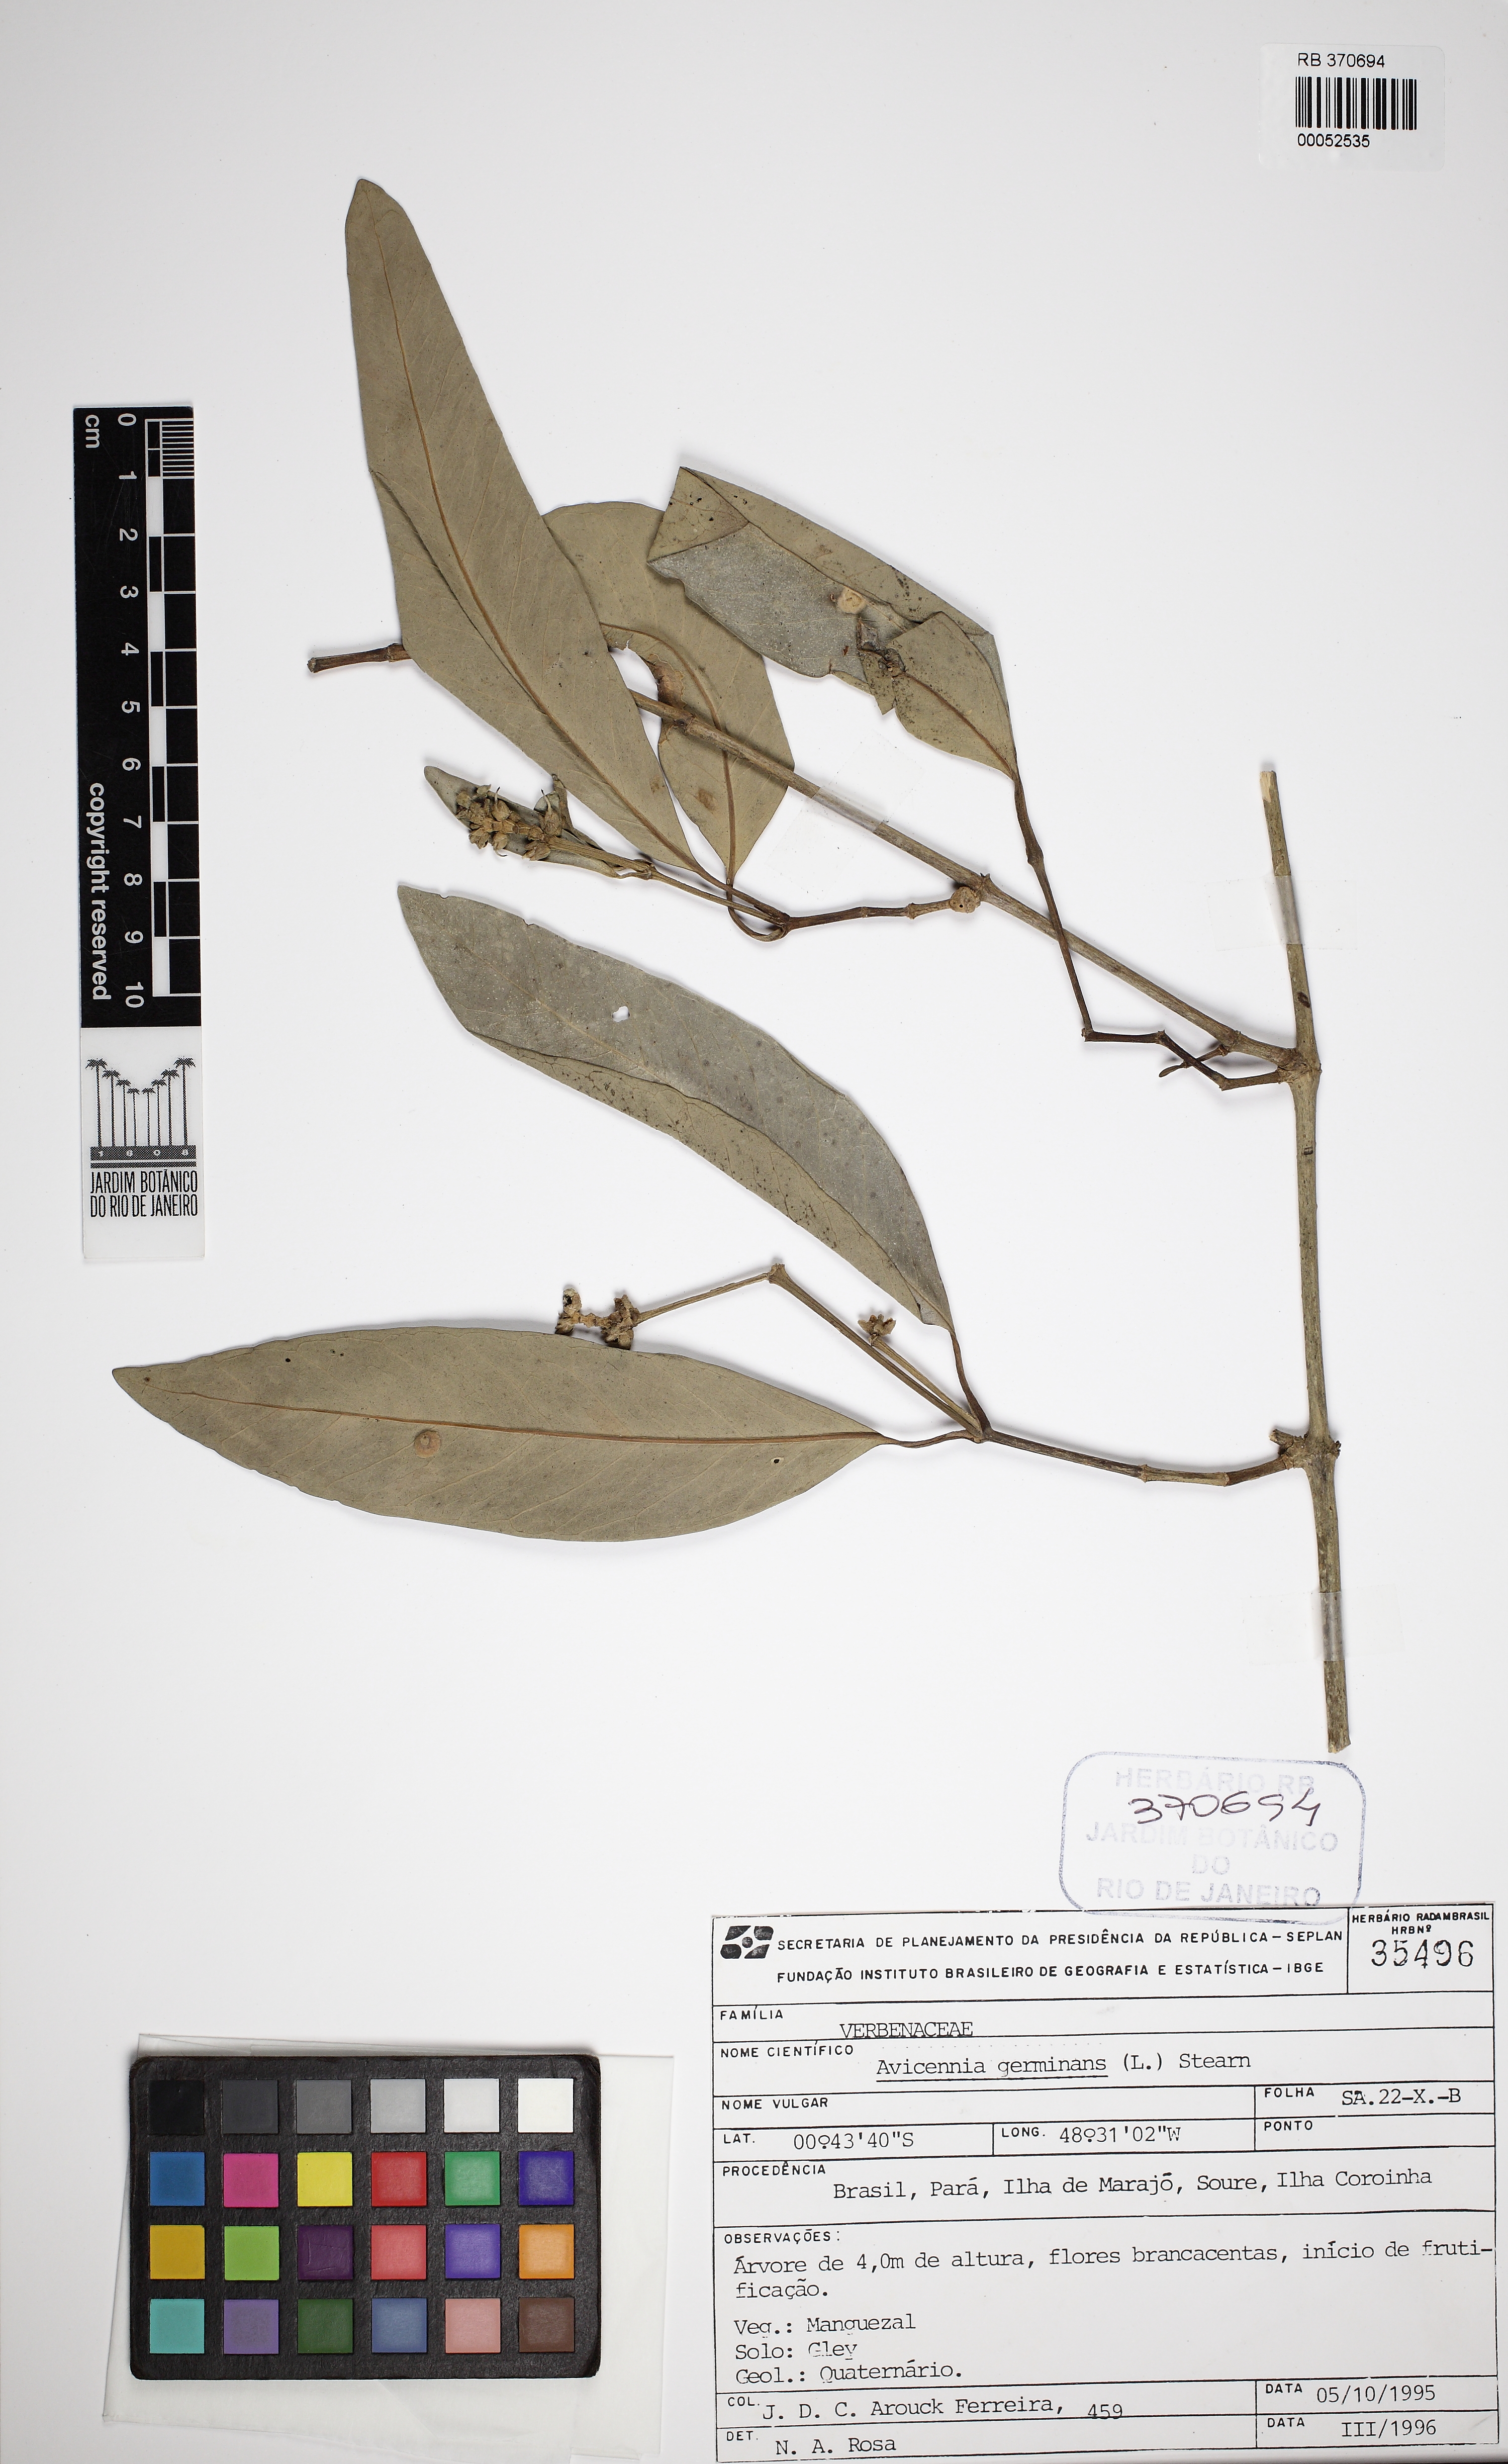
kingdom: Plantae
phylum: Tracheophyta
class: Magnoliopsida
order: Lamiales
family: Acanthaceae
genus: Avicennia
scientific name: Avicennia germinans
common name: Black mangrove
